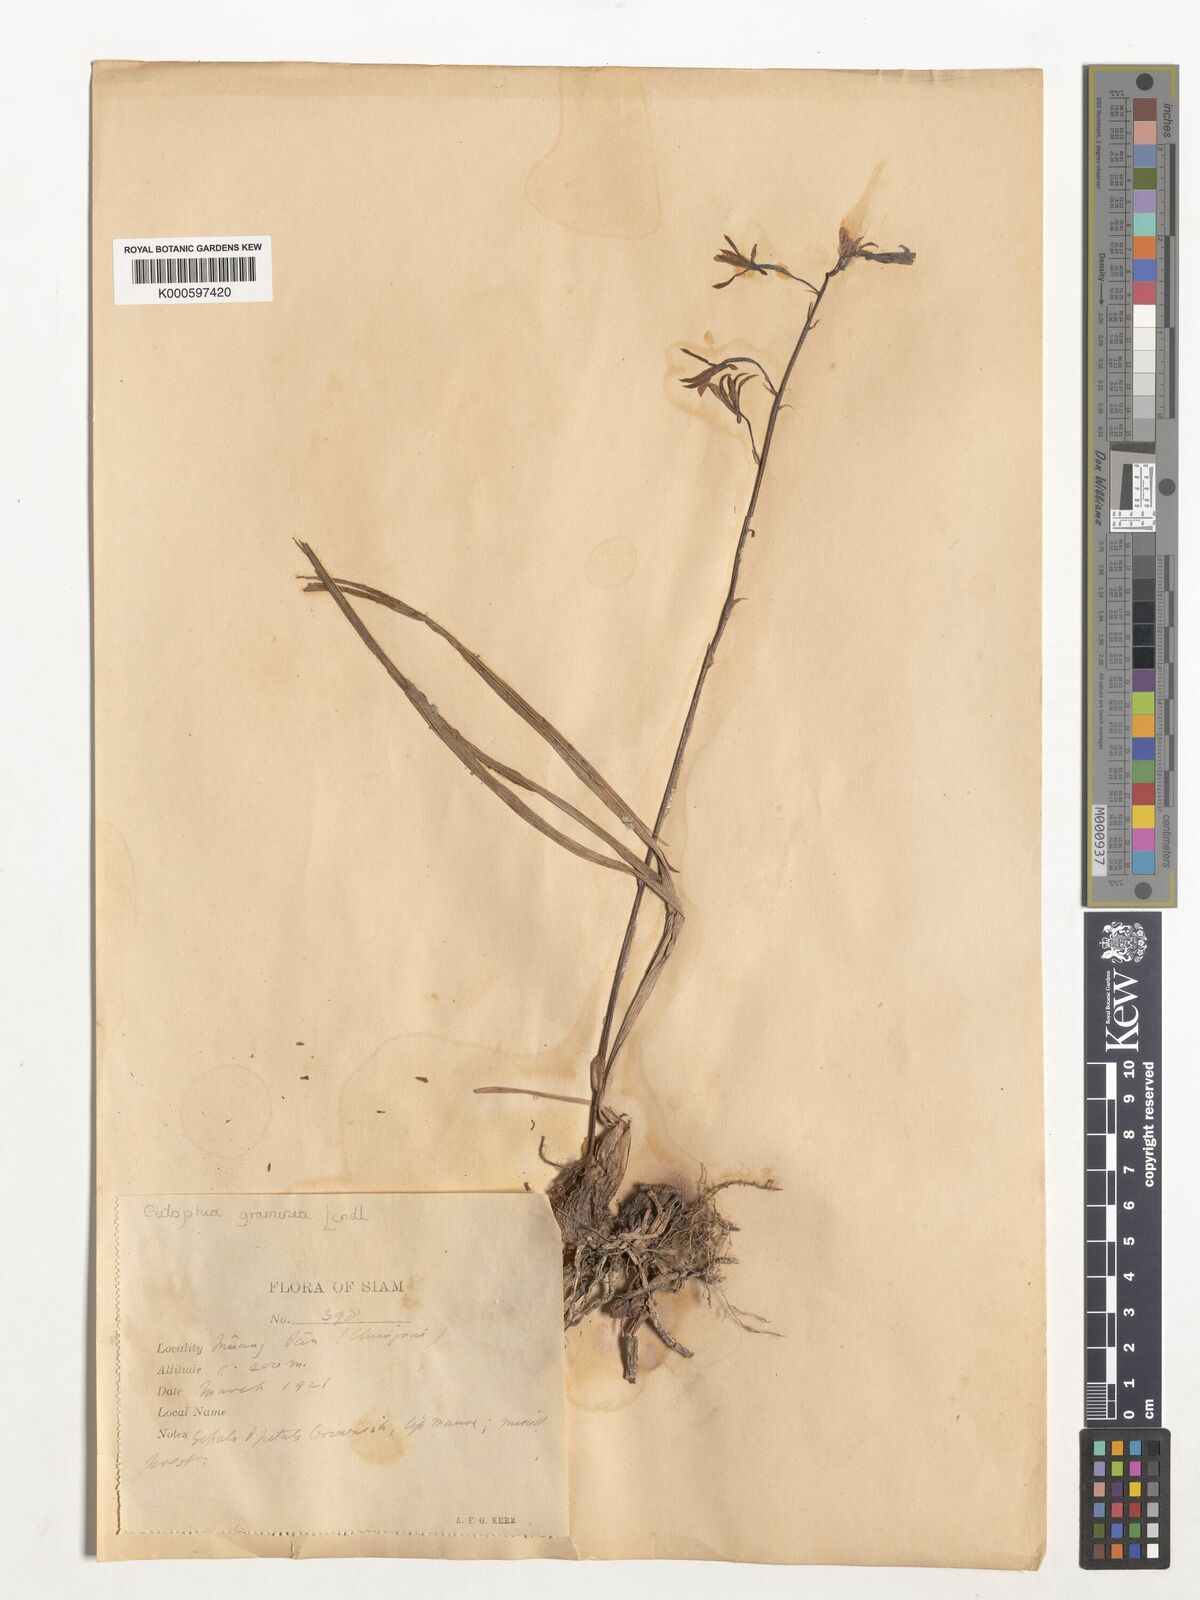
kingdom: Plantae
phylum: Tracheophyta
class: Liliopsida
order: Asparagales
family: Orchidaceae
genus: Eulophia
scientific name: Eulophia graminea
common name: Orchid
